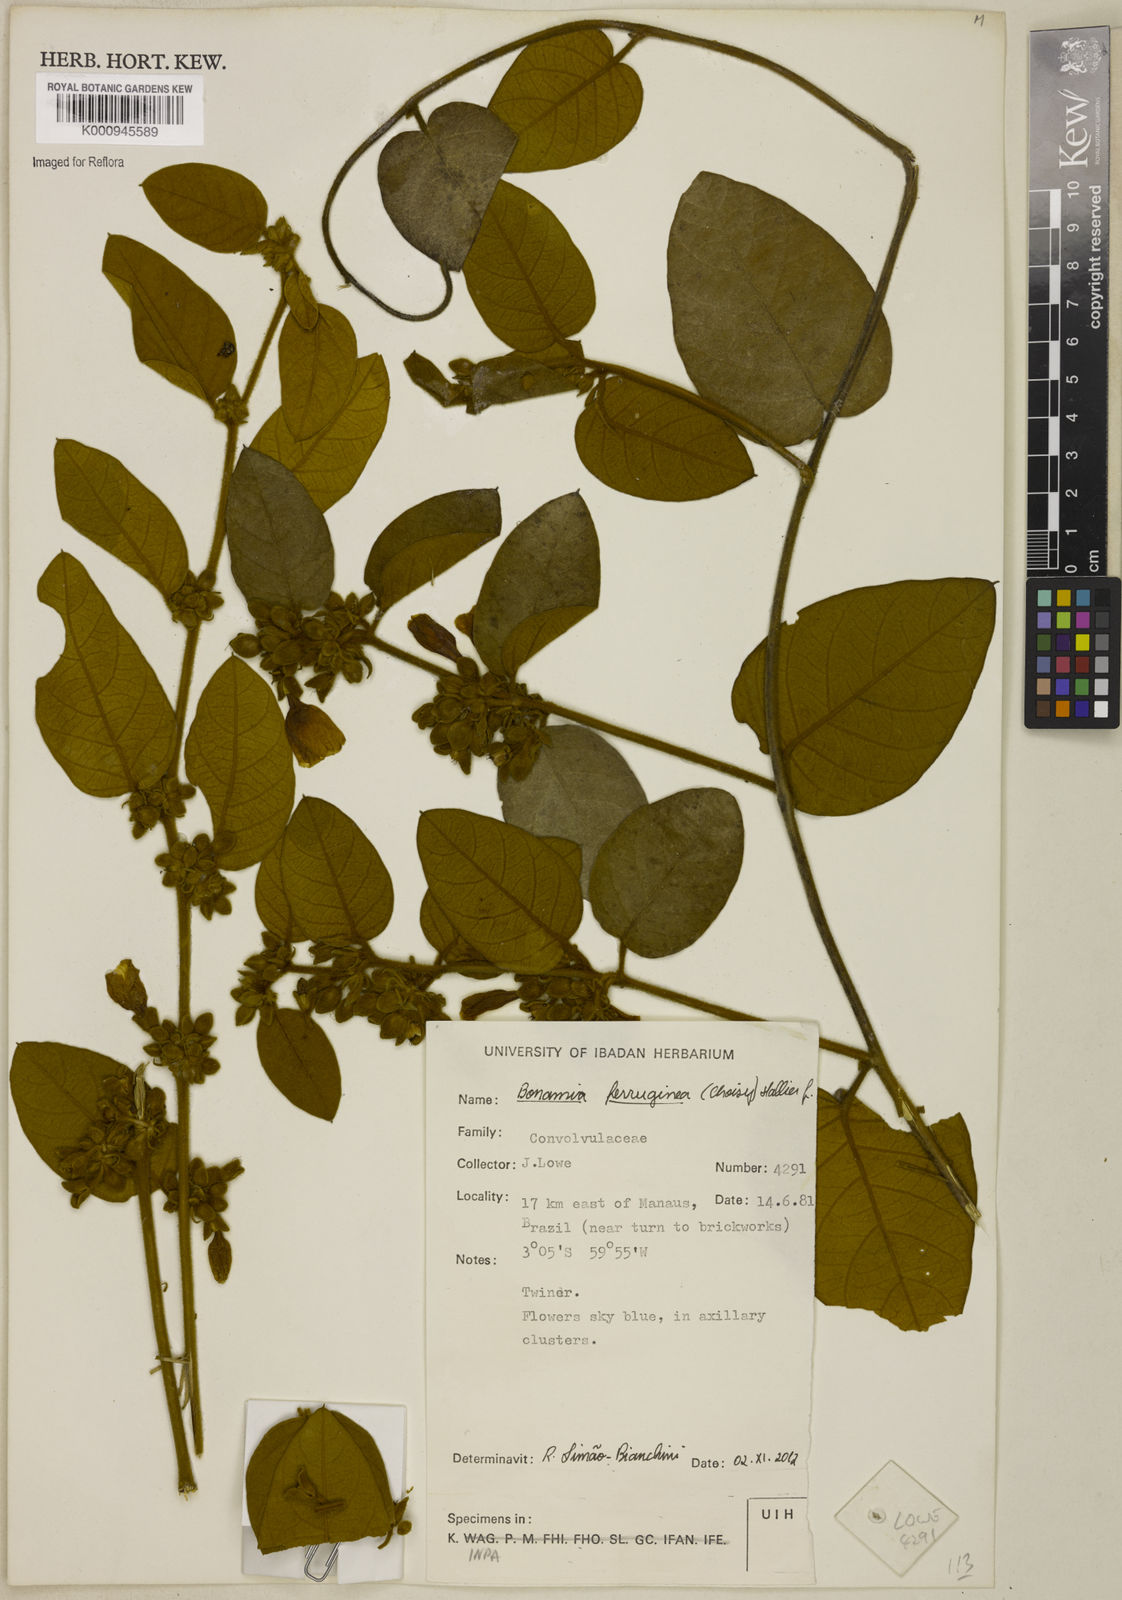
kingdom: Plantae
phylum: Tracheophyta
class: Magnoliopsida
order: Solanales
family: Convolvulaceae
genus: Bonamia
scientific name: Bonamia ferruginea
